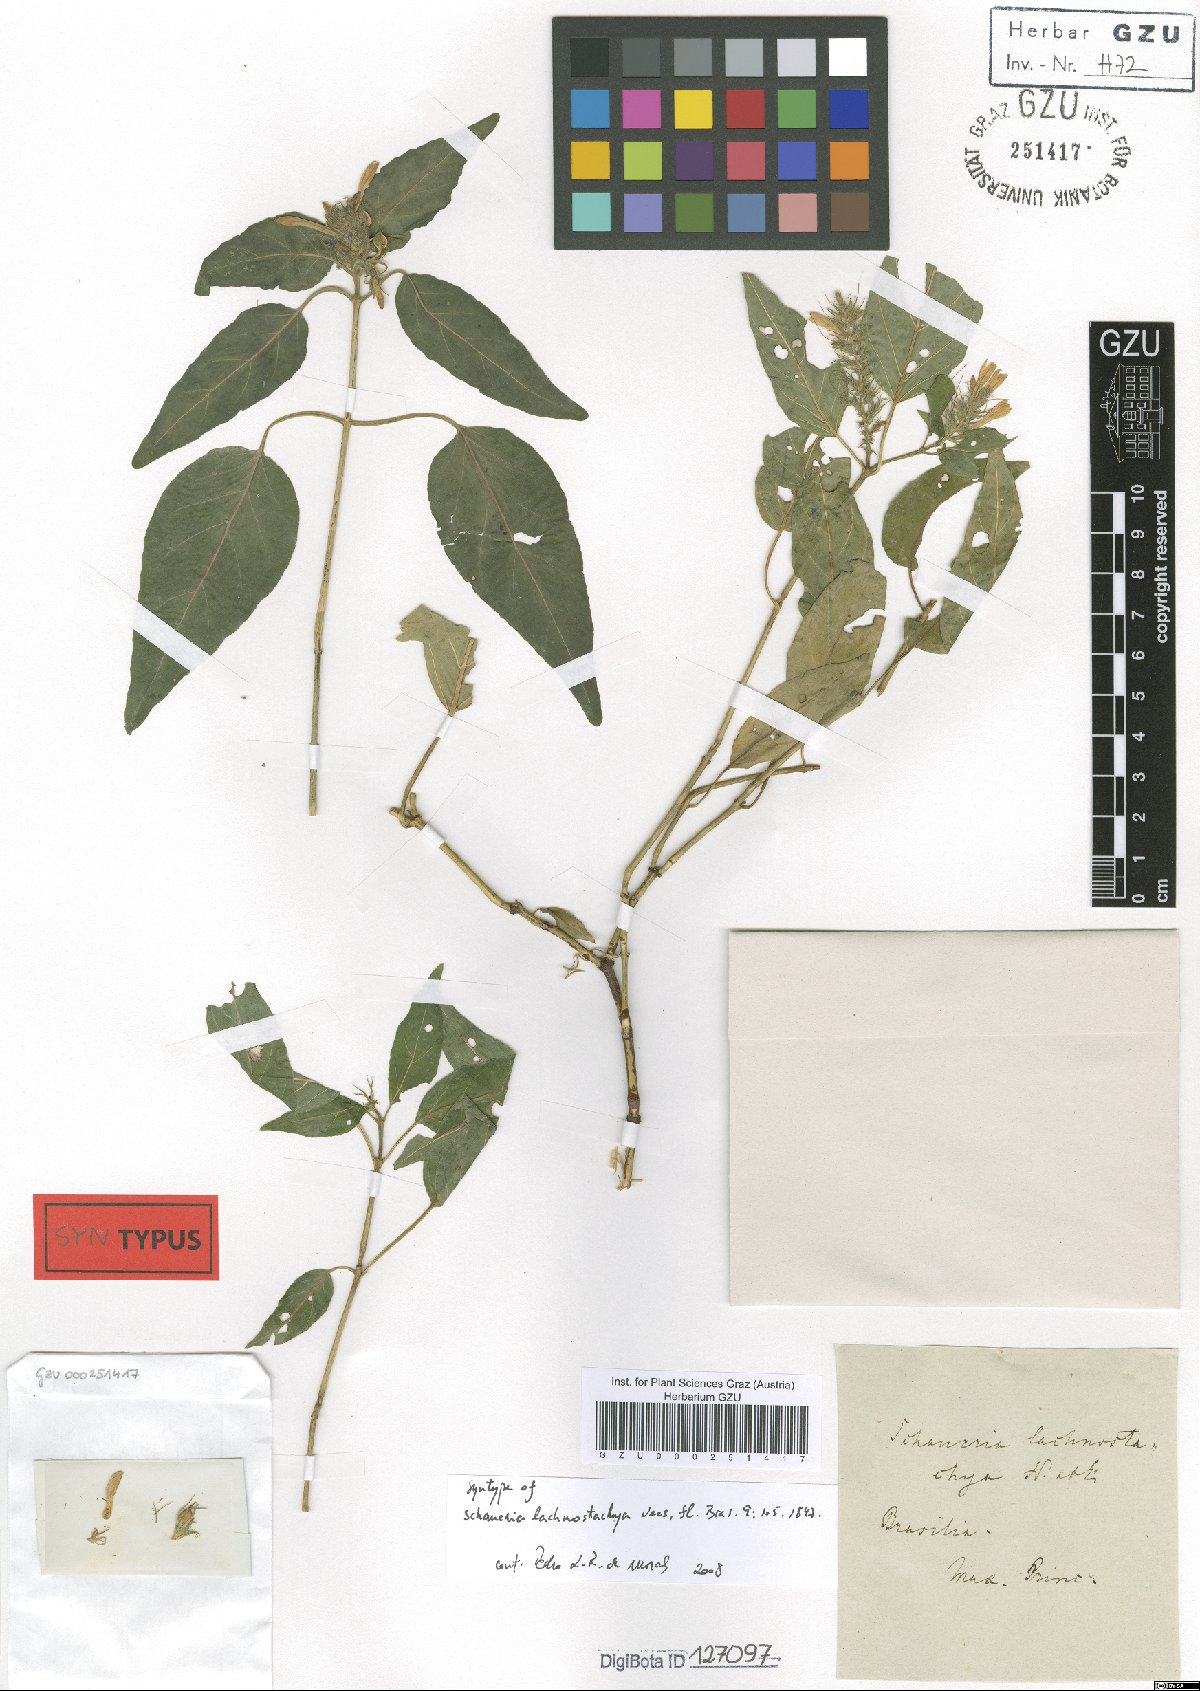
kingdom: Plantae
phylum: Tracheophyta
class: Magnoliopsida
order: Lamiales
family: Acanthaceae
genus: Schaueria
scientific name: Schaueria lachnostachya
